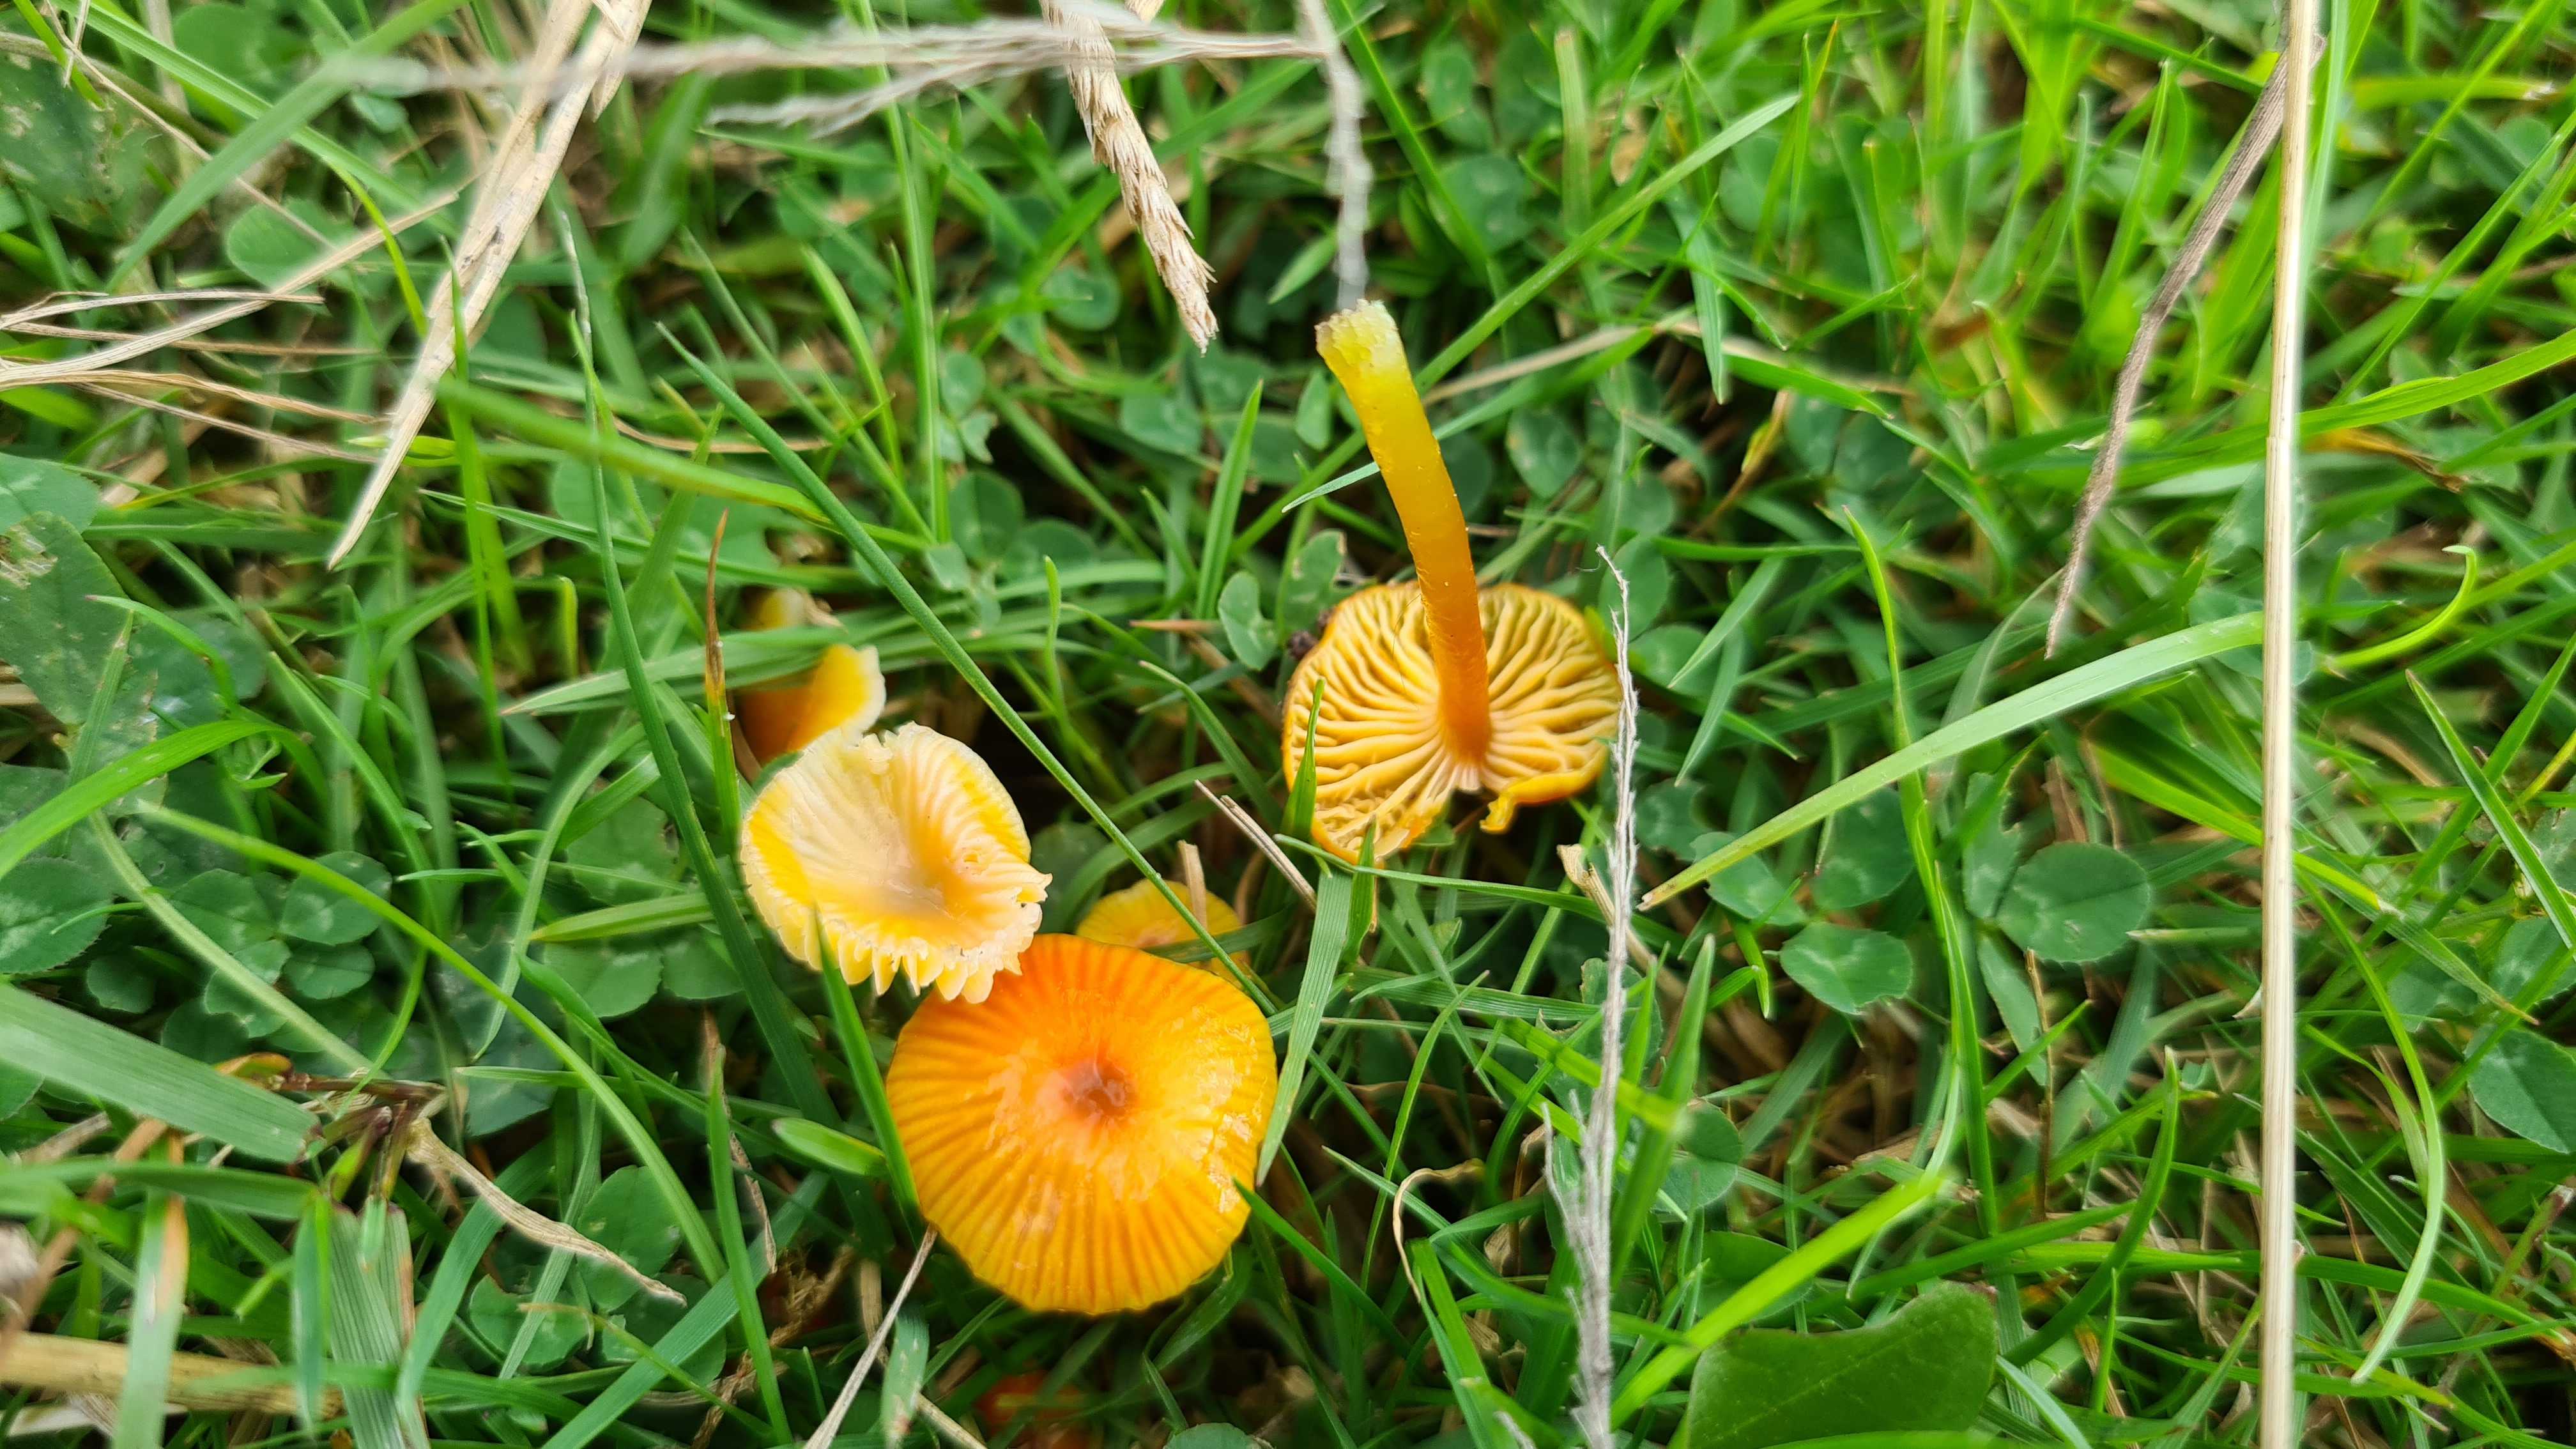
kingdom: Fungi
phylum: Basidiomycota
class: Agaricomycetes
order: Agaricales
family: Hygrophoraceae
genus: Hygrocybe
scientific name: Hygrocybe glutinipes
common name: slimstokket vokshat
